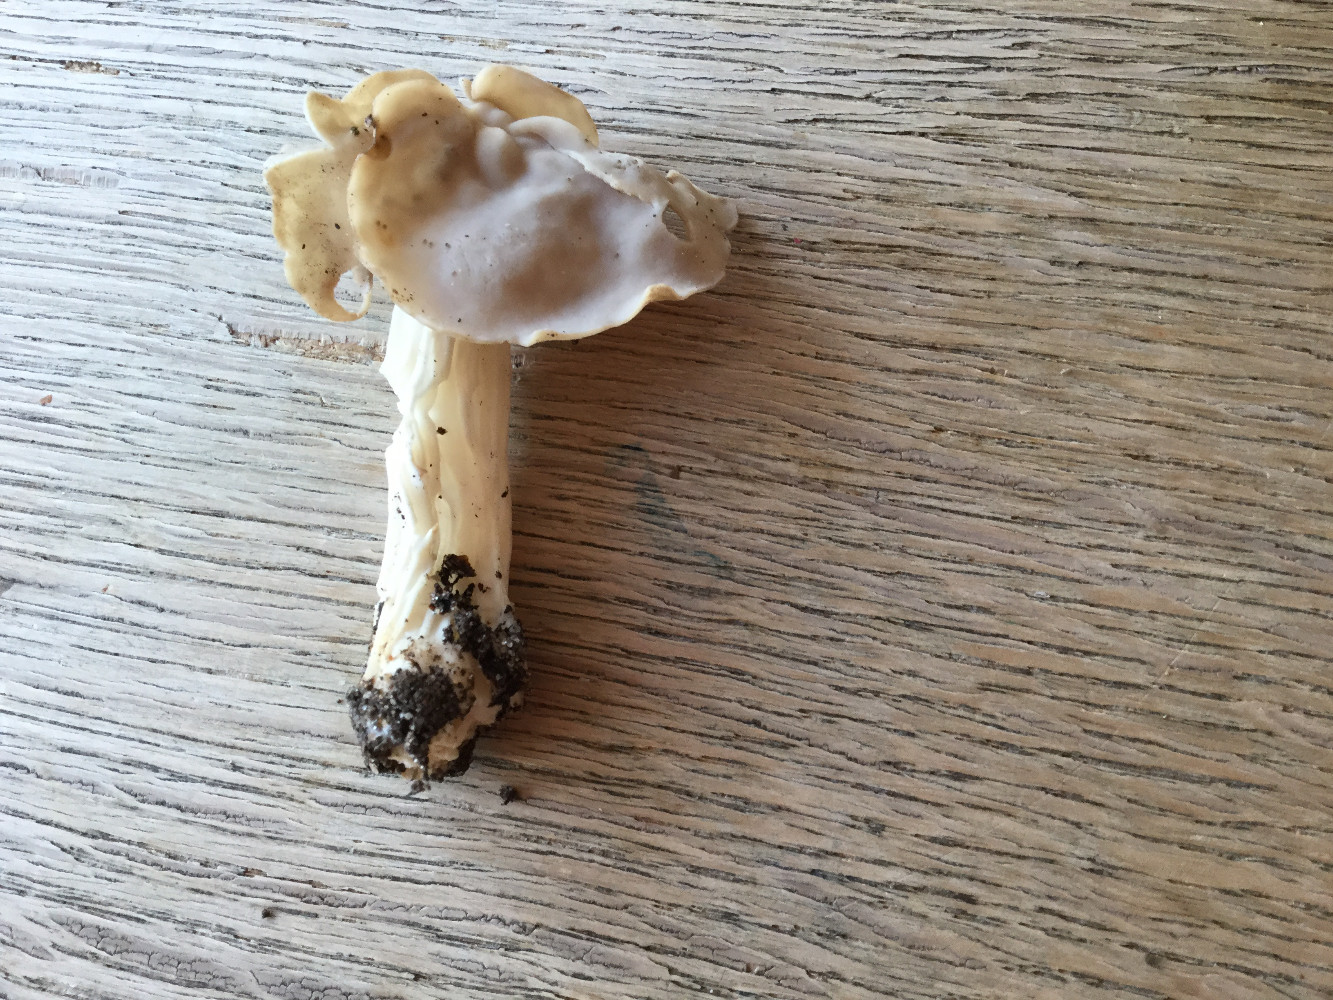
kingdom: Fungi
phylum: Ascomycota
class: Pezizomycetes
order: Pezizales
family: Helvellaceae
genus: Helvella
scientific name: Helvella crispa
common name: kruset foldhat
